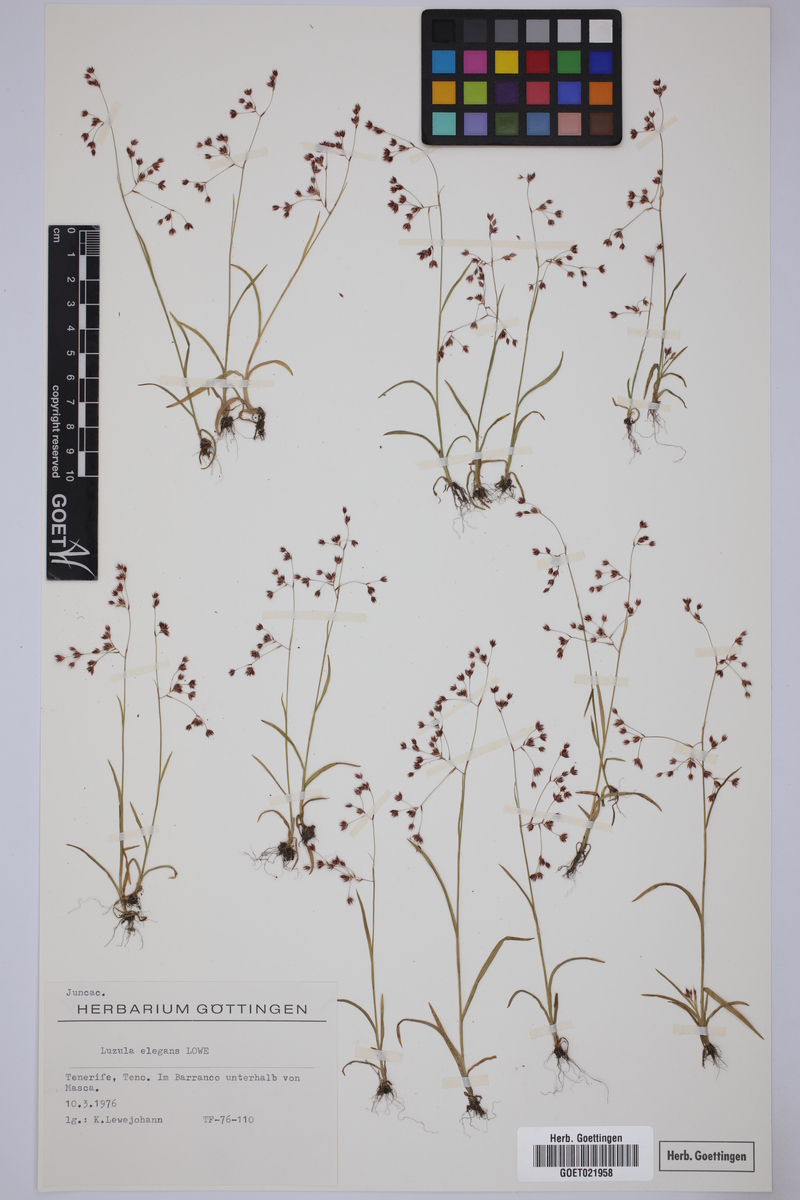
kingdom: Plantae
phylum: Tracheophyta
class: Liliopsida
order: Poales
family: Juncaceae
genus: Luzula
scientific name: Luzula elegans
